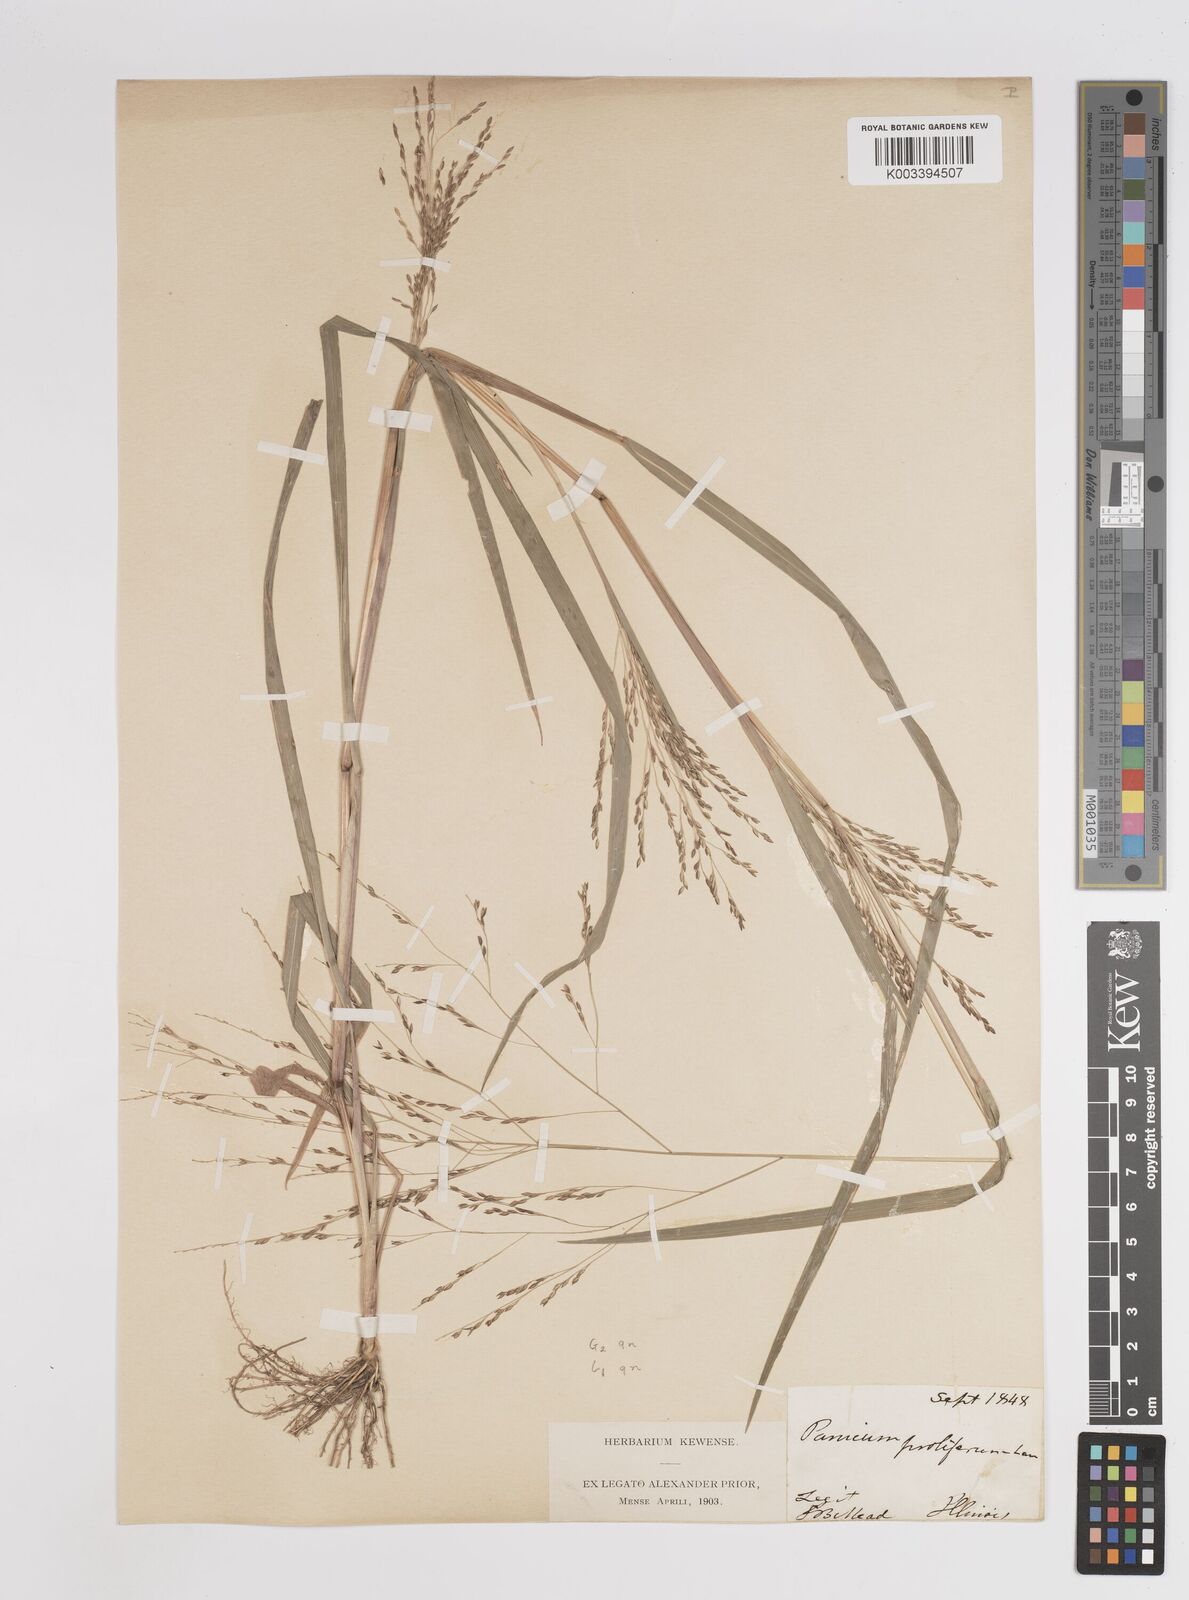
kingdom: Plantae
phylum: Tracheophyta
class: Liliopsida
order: Poales
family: Poaceae
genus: Panicum
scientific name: Panicum dichotomiflorum
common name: Autumn millet
